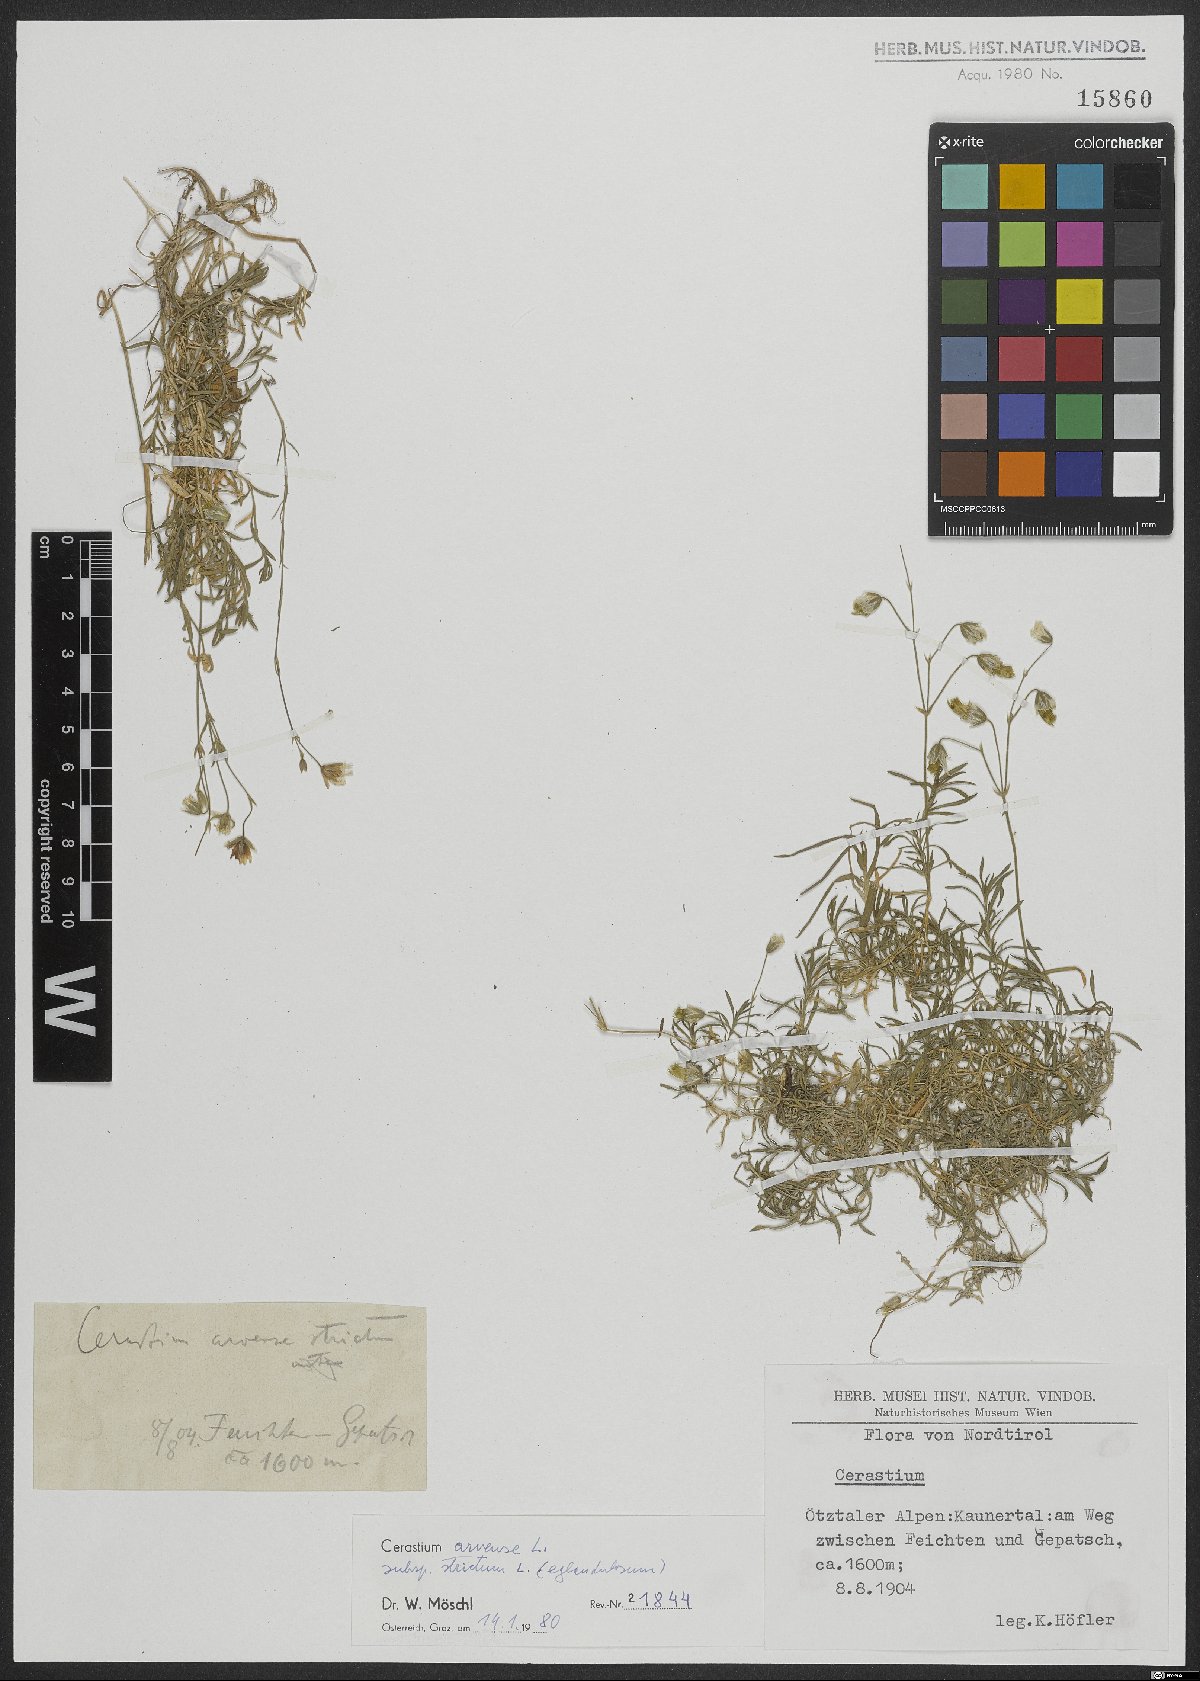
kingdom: Plantae
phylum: Tracheophyta
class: Magnoliopsida
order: Caryophyllales
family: Caryophyllaceae
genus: Cerastium
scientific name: Cerastium elongatum
